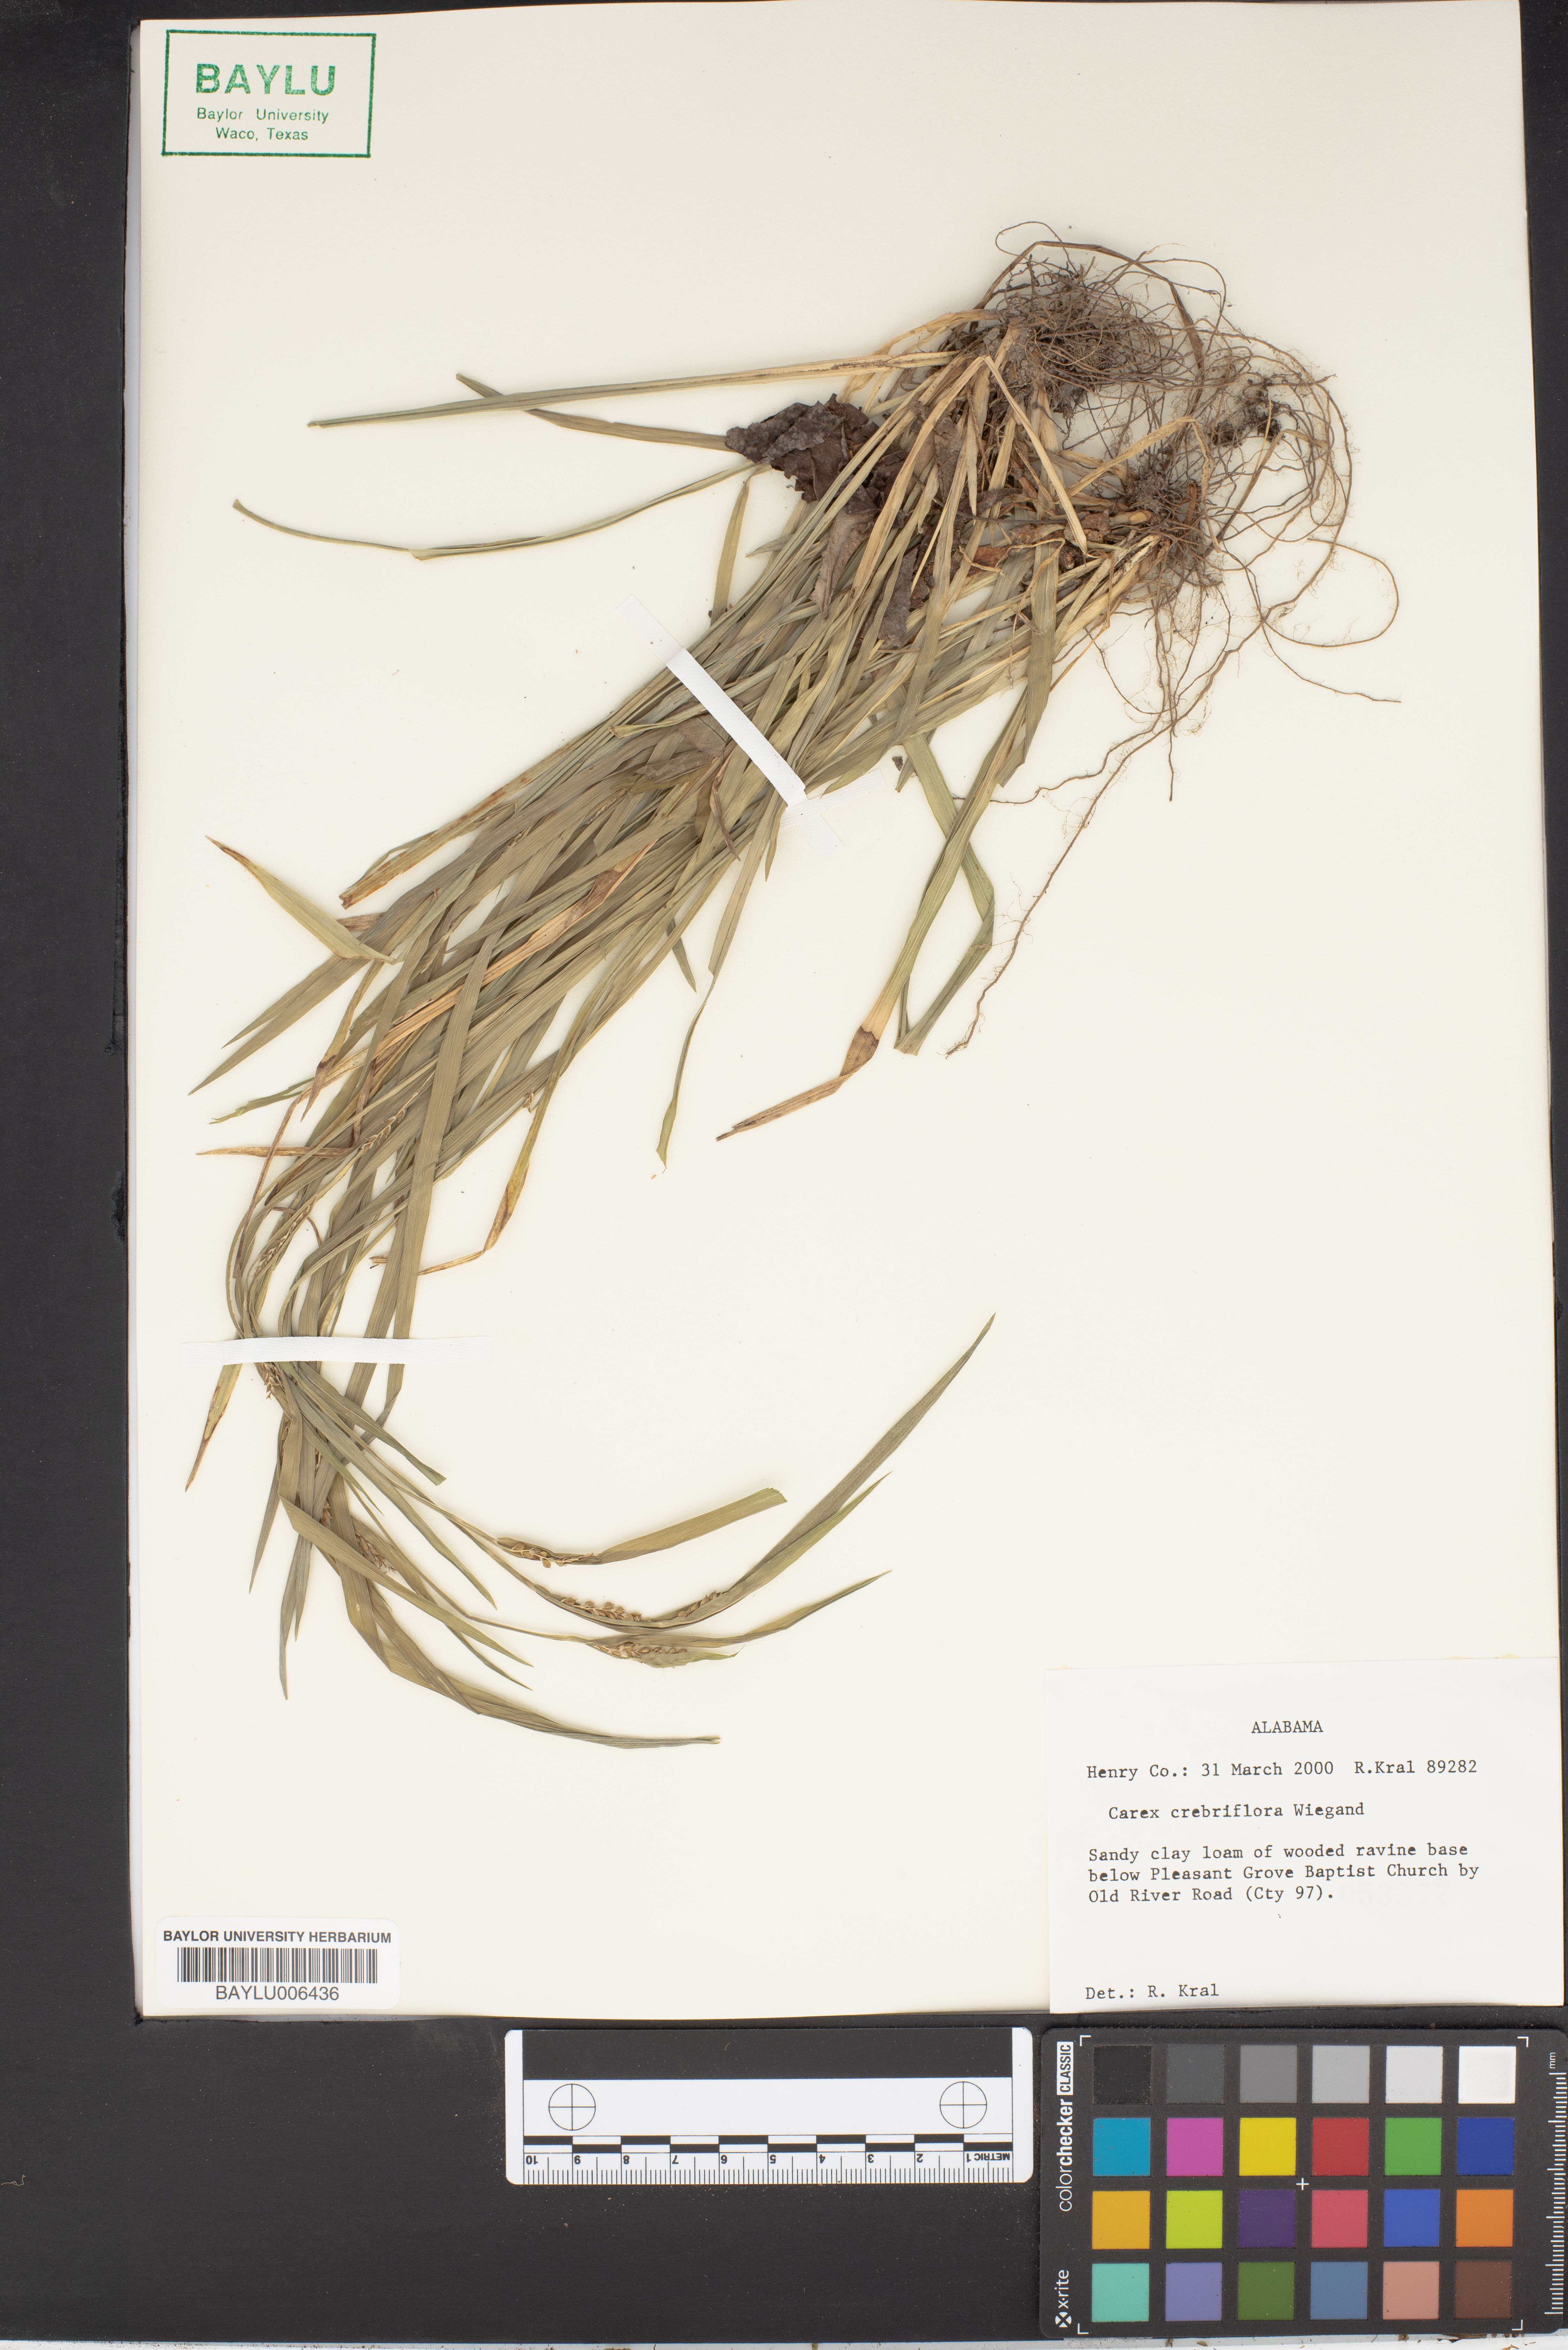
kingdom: Plantae
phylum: Tracheophyta
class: Liliopsida
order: Poales
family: Cyperaceae
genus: Carex
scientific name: Carex crebriflora
